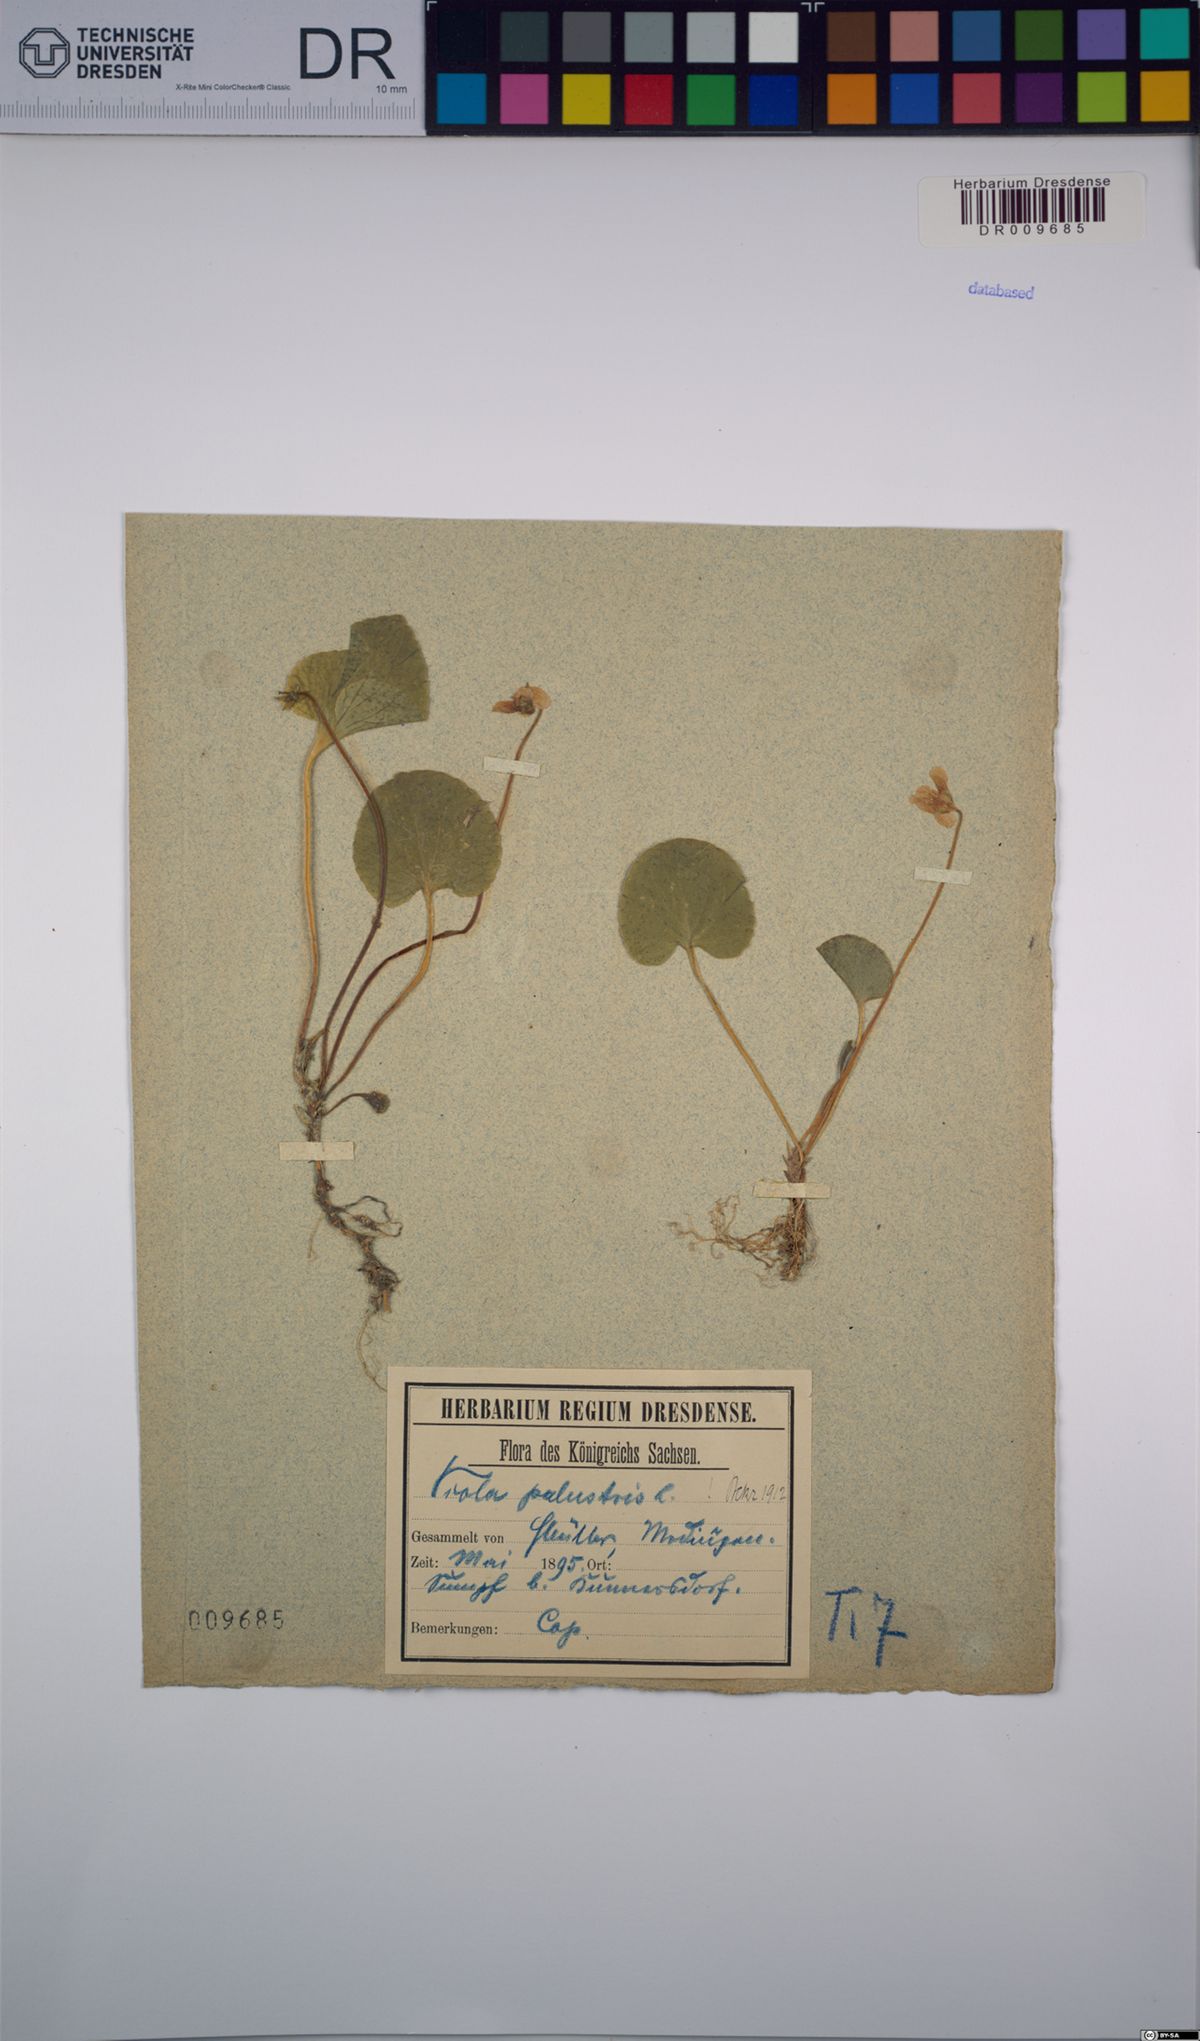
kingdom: Plantae
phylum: Tracheophyta
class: Magnoliopsida
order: Malpighiales
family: Violaceae
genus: Viola
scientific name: Viola palustris
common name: Marsh violet
